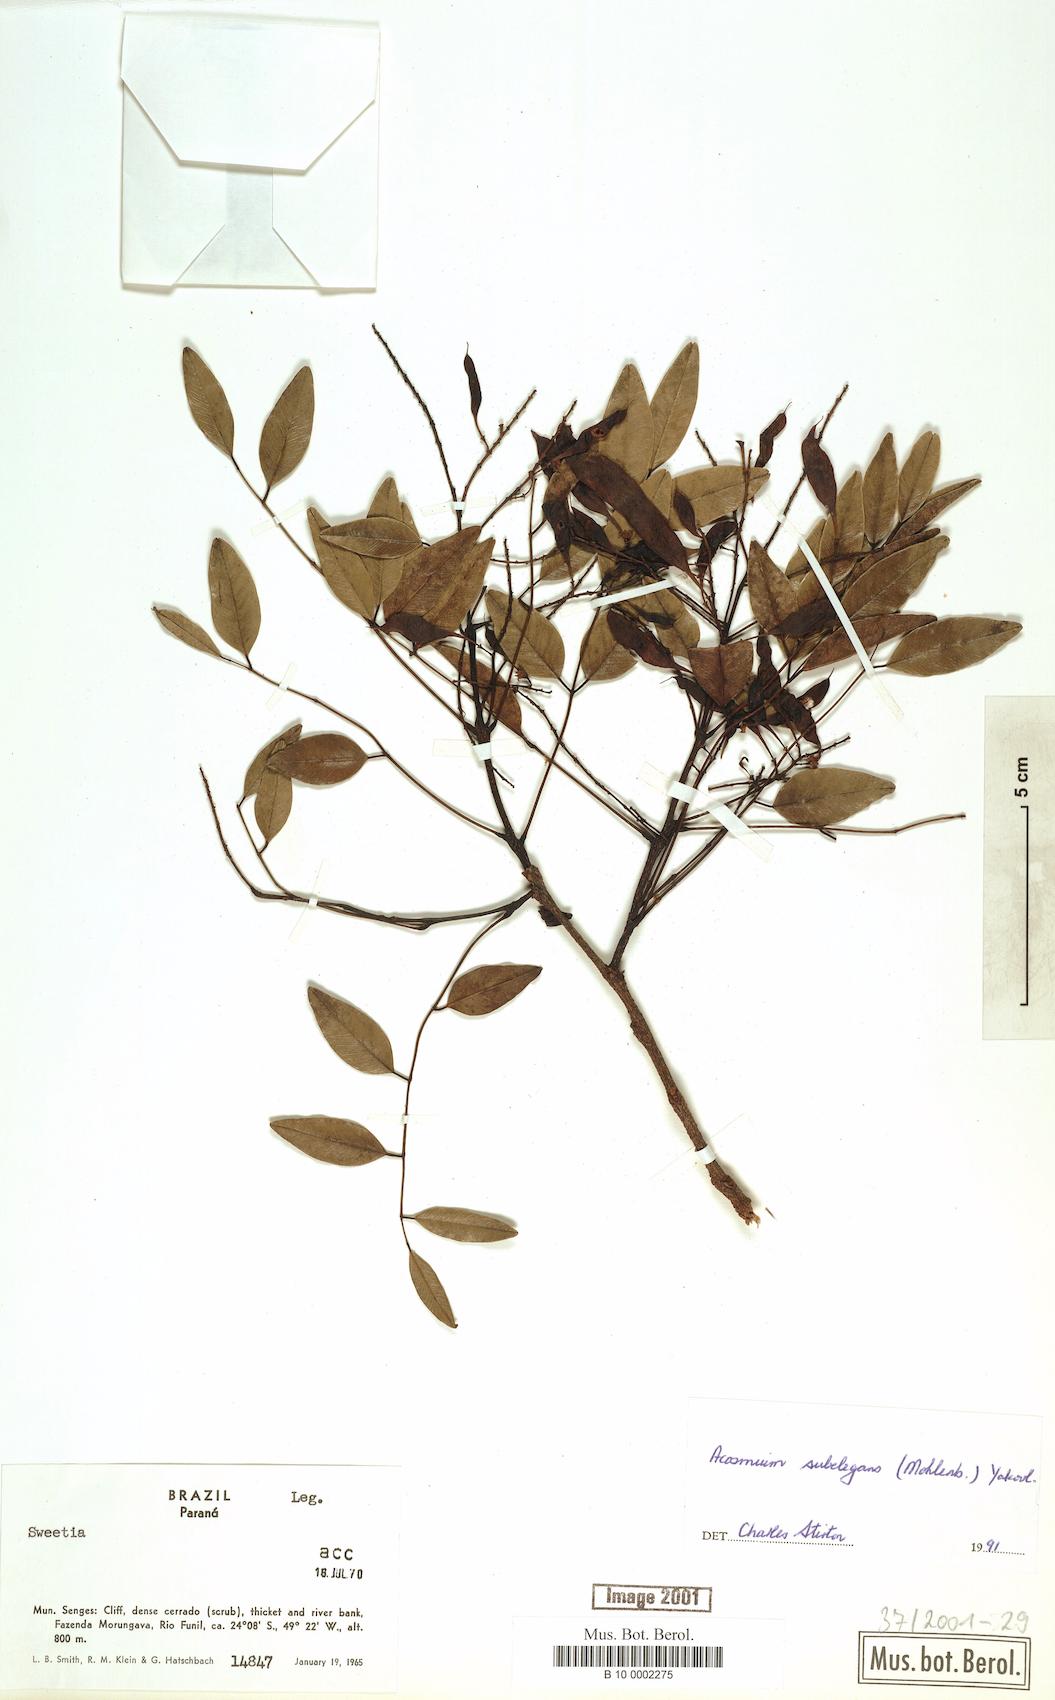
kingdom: Plantae
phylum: Tracheophyta
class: Magnoliopsida
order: Fabales
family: Fabaceae
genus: Leptolobium
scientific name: Leptolobium elegans
